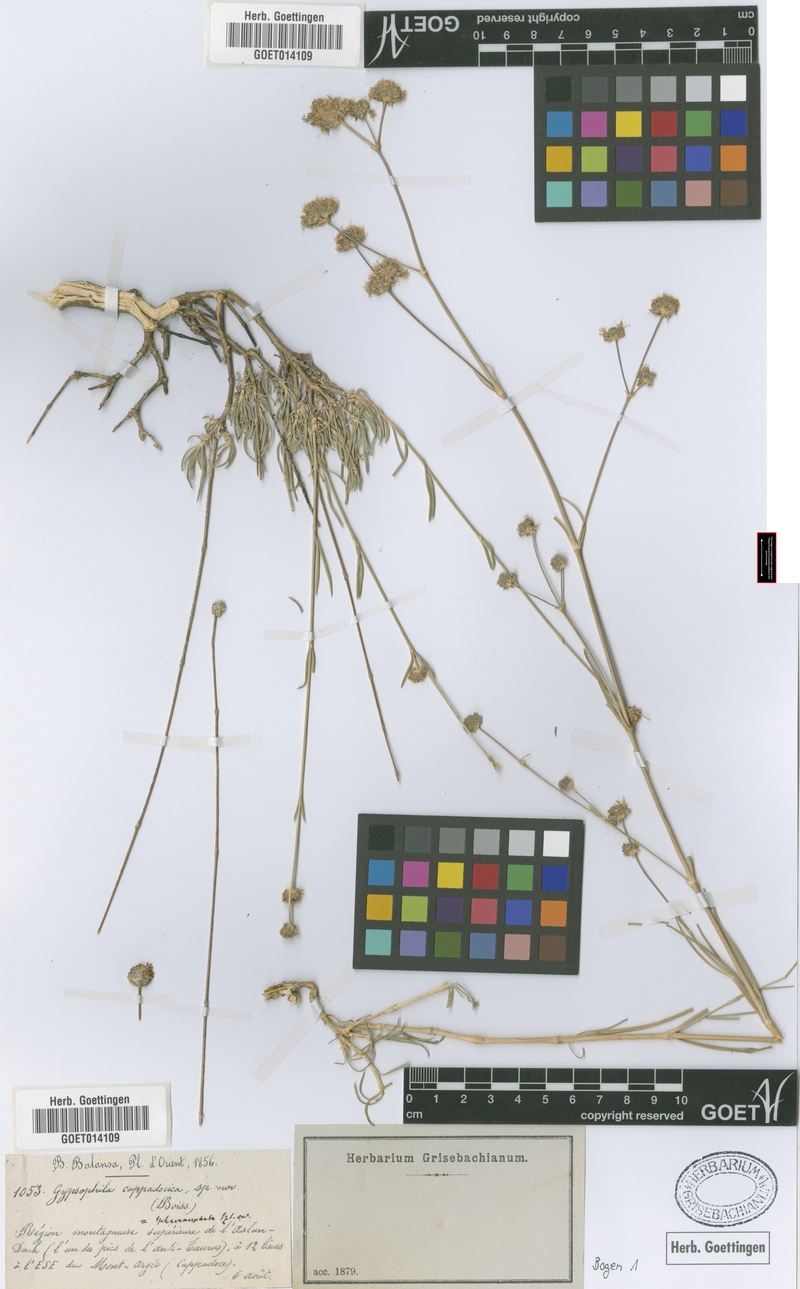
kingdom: Plantae
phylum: Tracheophyta
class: Magnoliopsida
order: Caryophyllales
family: Caryophyllaceae
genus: Gypsophila
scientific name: Gypsophila laricina
